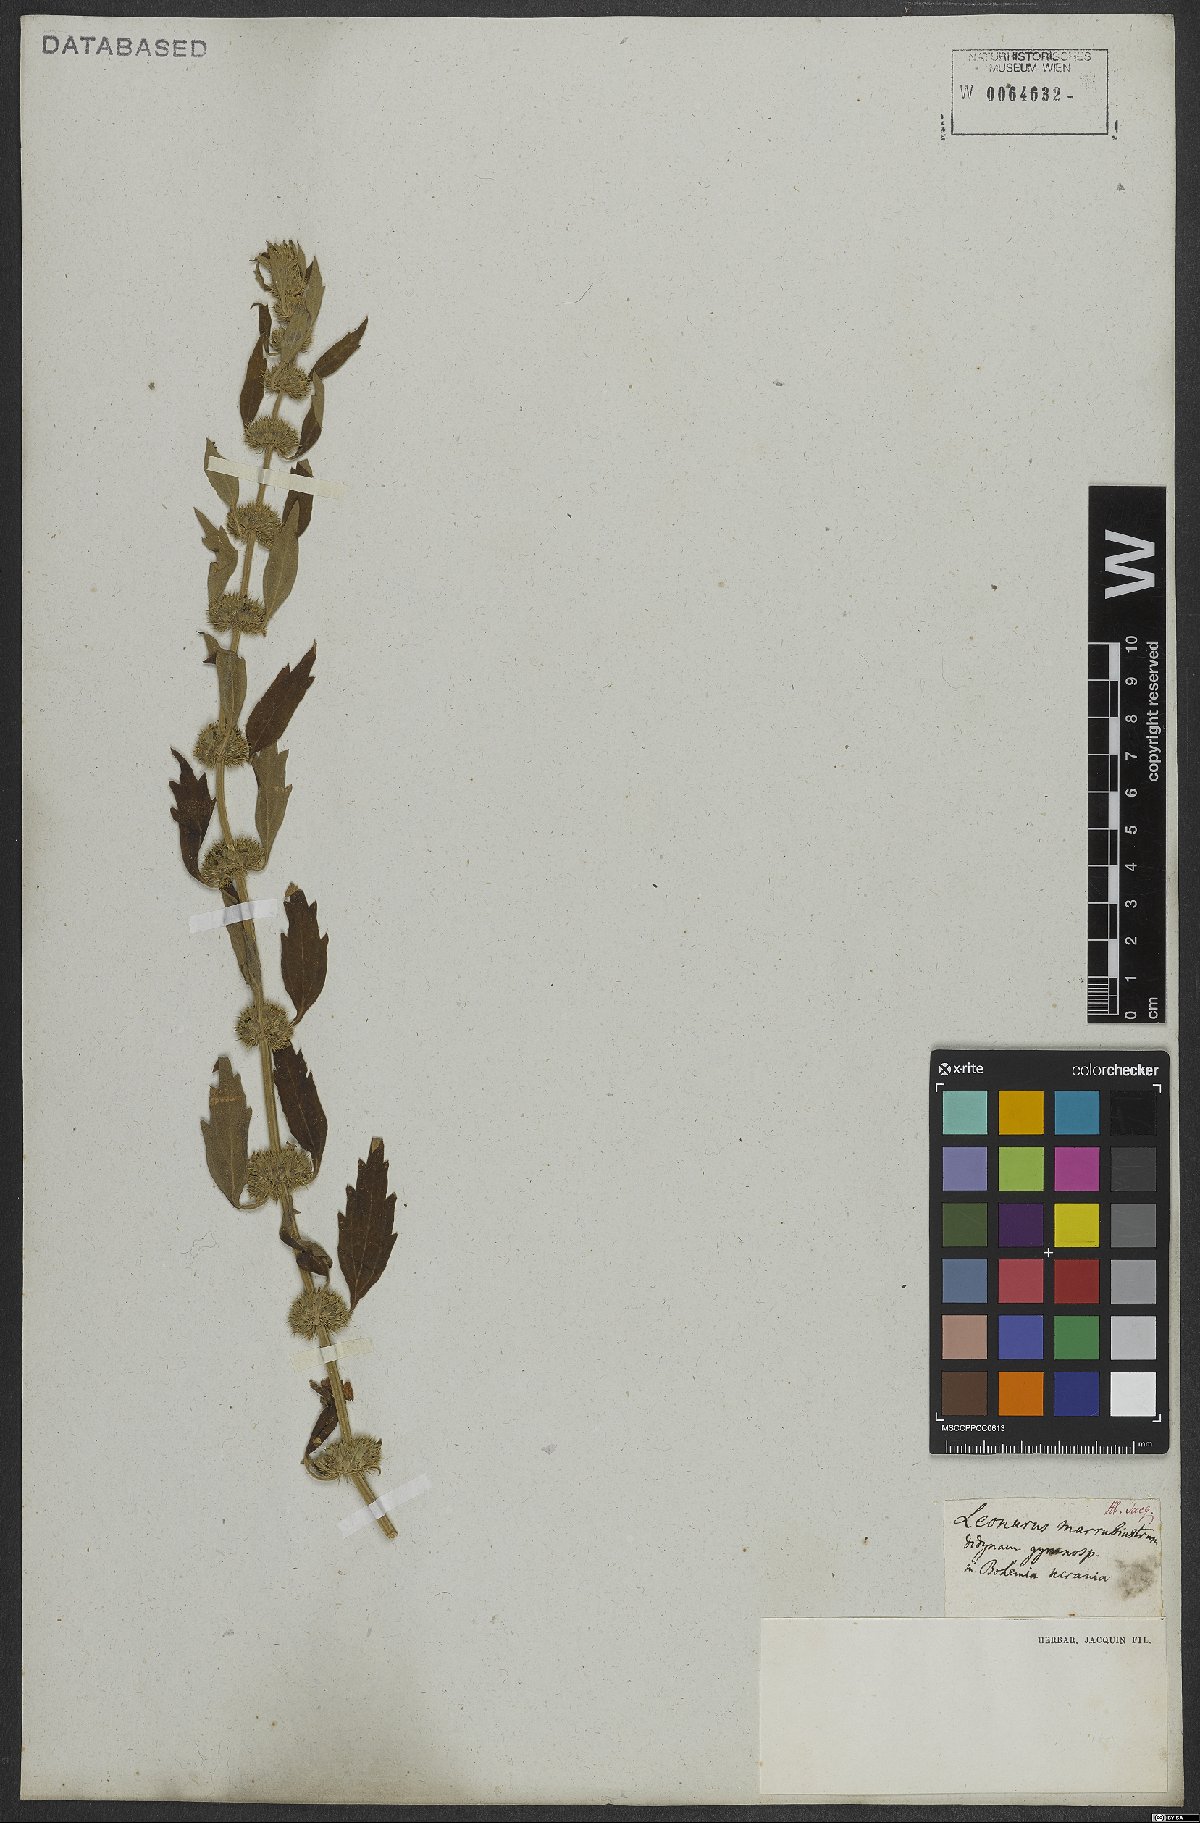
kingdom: Plantae
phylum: Tracheophyta
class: Magnoliopsida
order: Lamiales
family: Lamiaceae
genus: Chaiturus
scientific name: Chaiturus marrubiastrum
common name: Lion's tail
